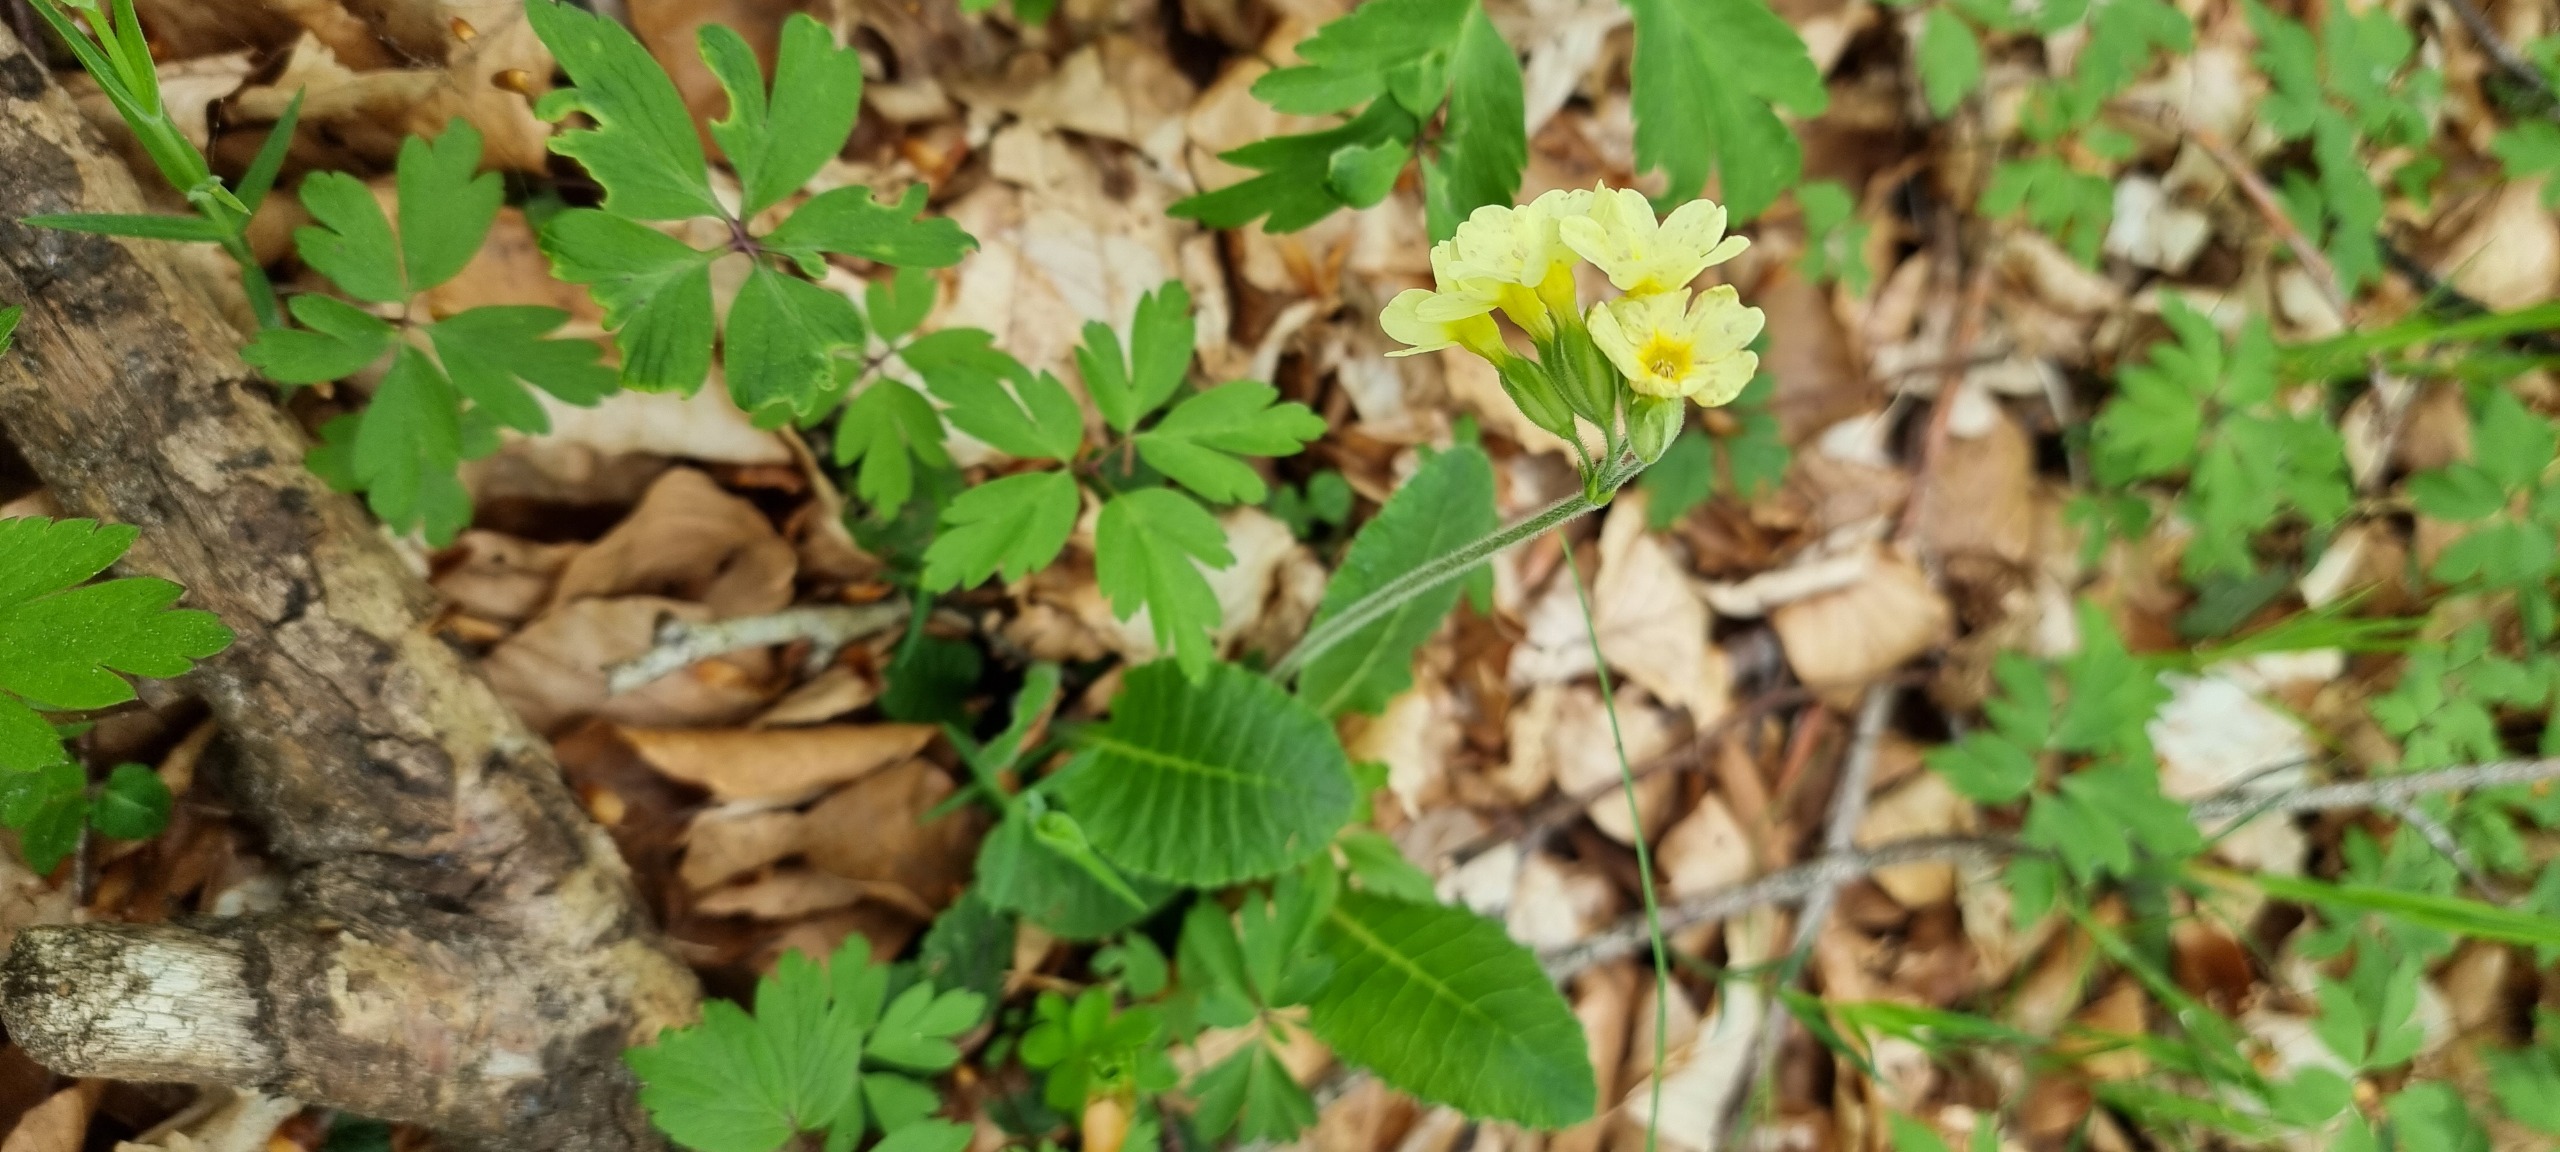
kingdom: Plantae
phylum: Tracheophyta
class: Magnoliopsida
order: Ericales
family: Primulaceae
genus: Primula
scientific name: Primula elatior
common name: Fladkravet kodriver
